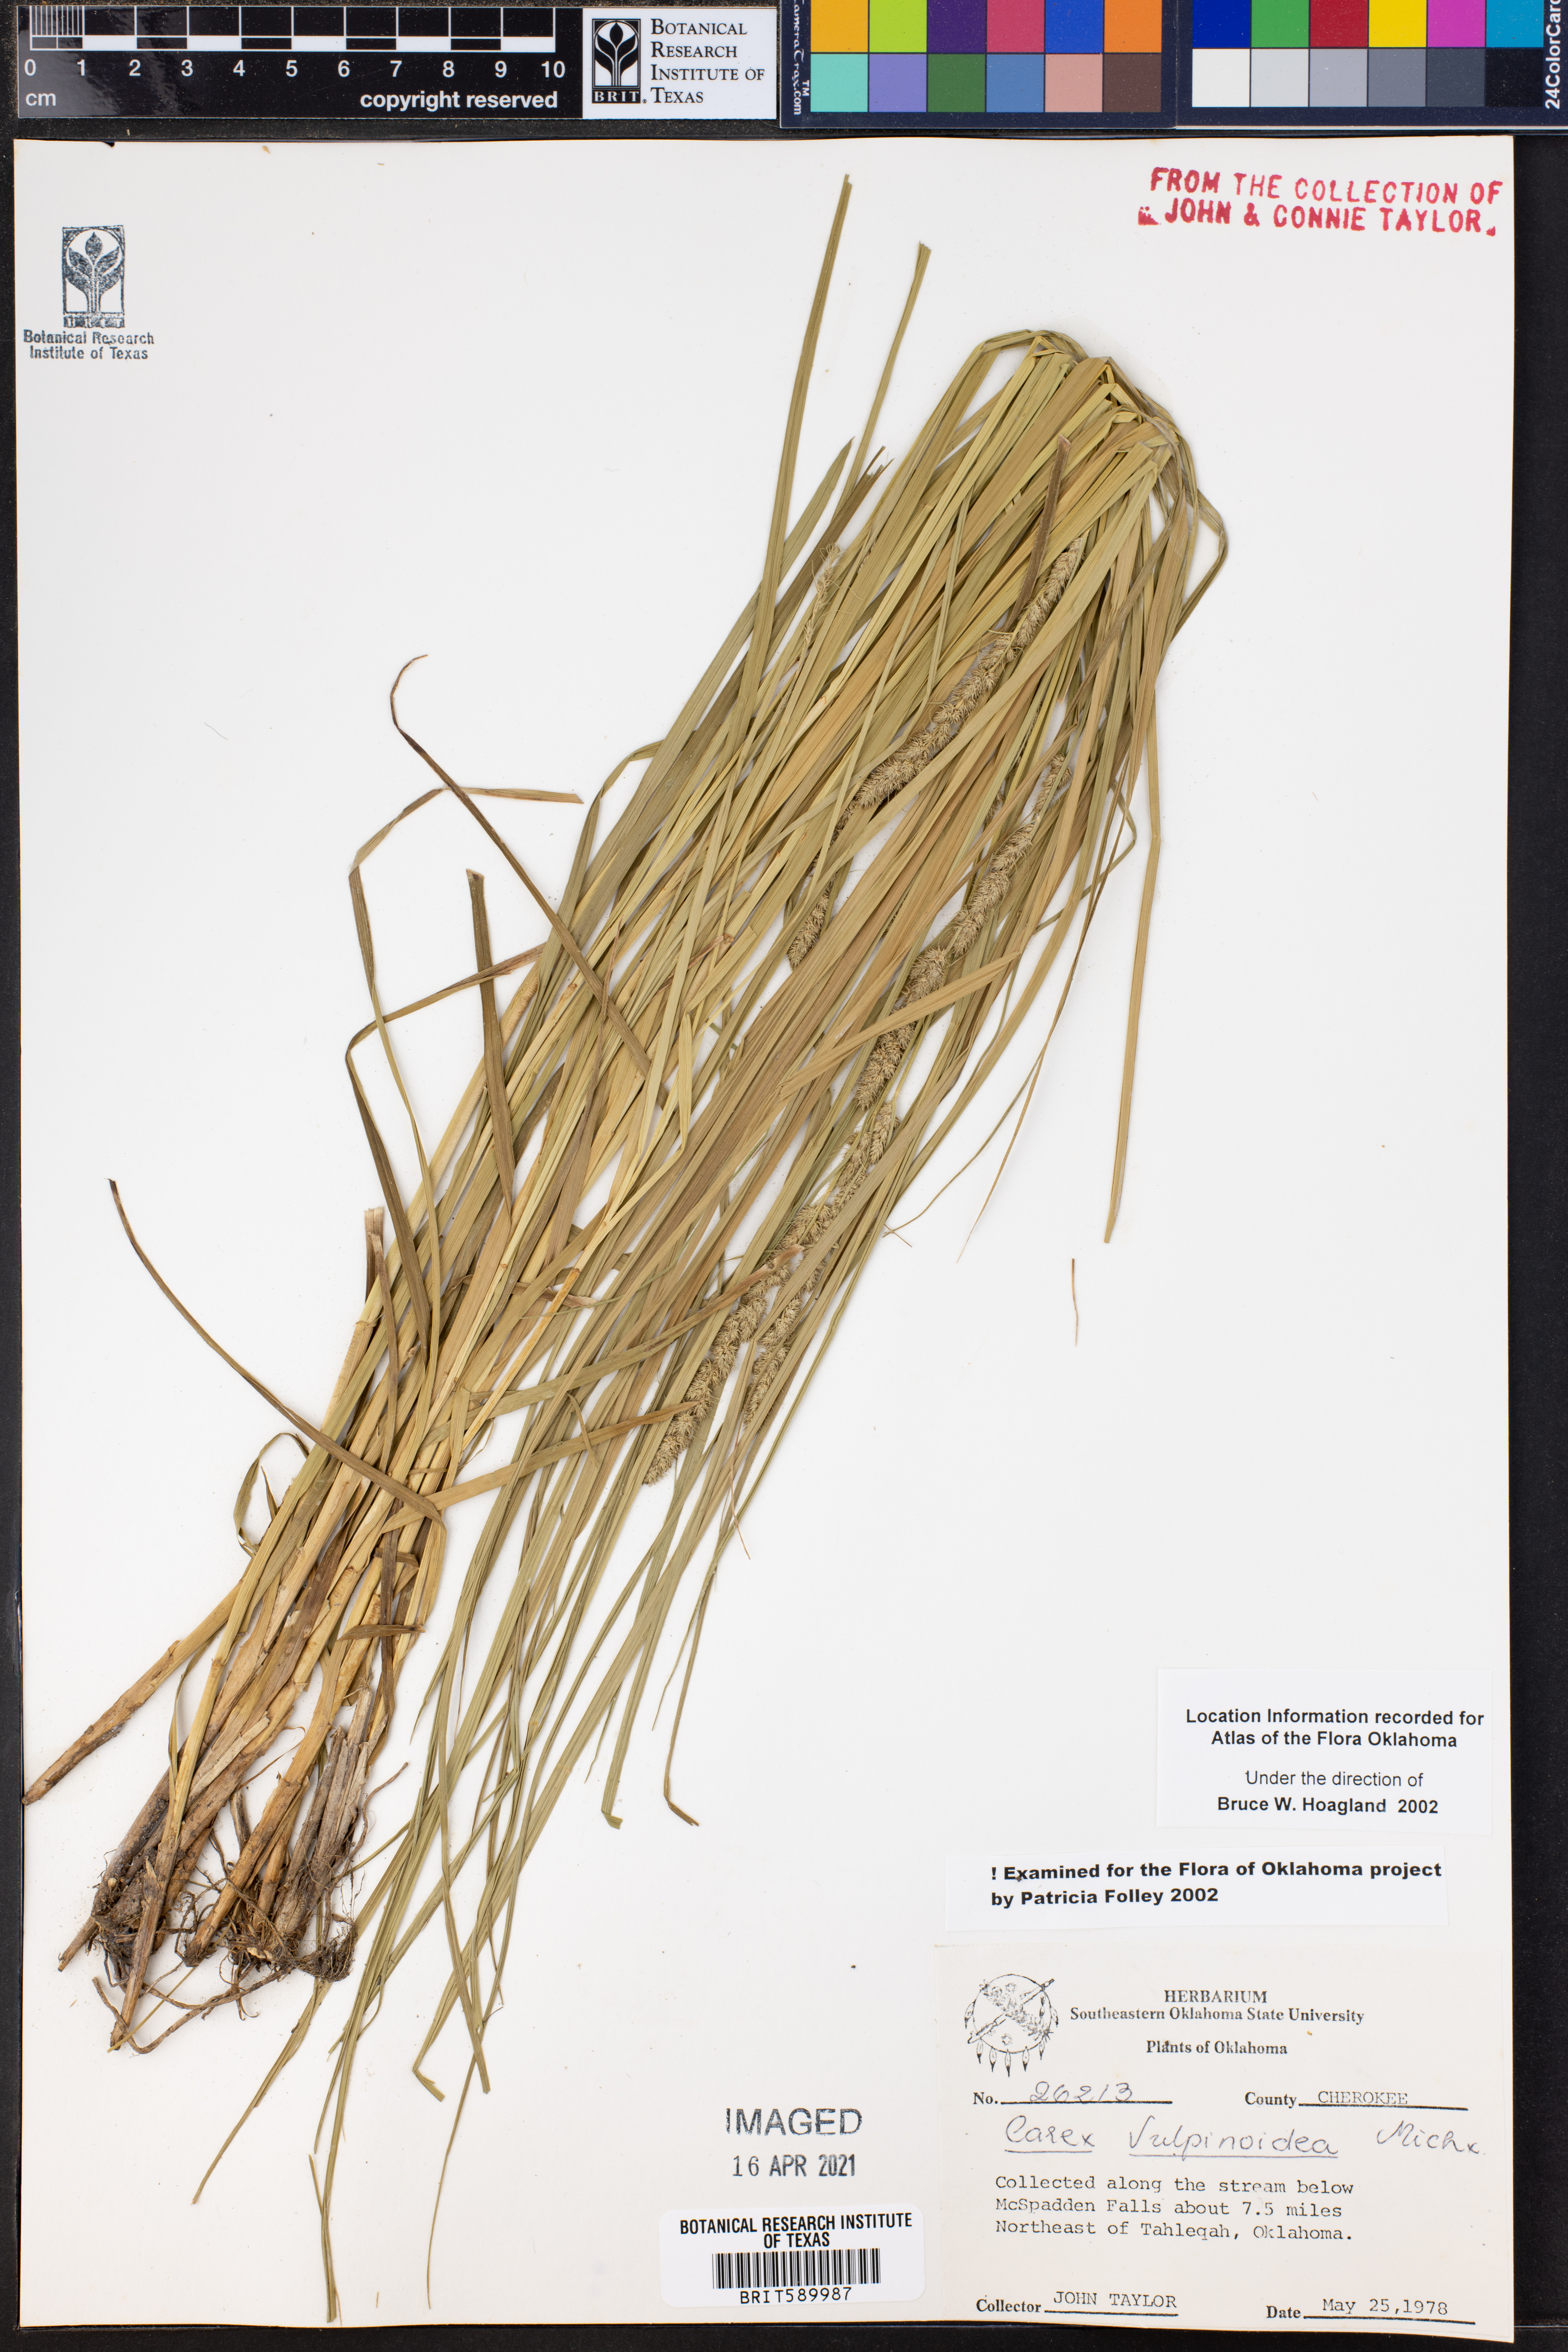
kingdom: Plantae
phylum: Tracheophyta
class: Liliopsida
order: Poales
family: Cyperaceae
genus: Carex
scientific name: Carex vulpinoidea
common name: American fox-sedge
